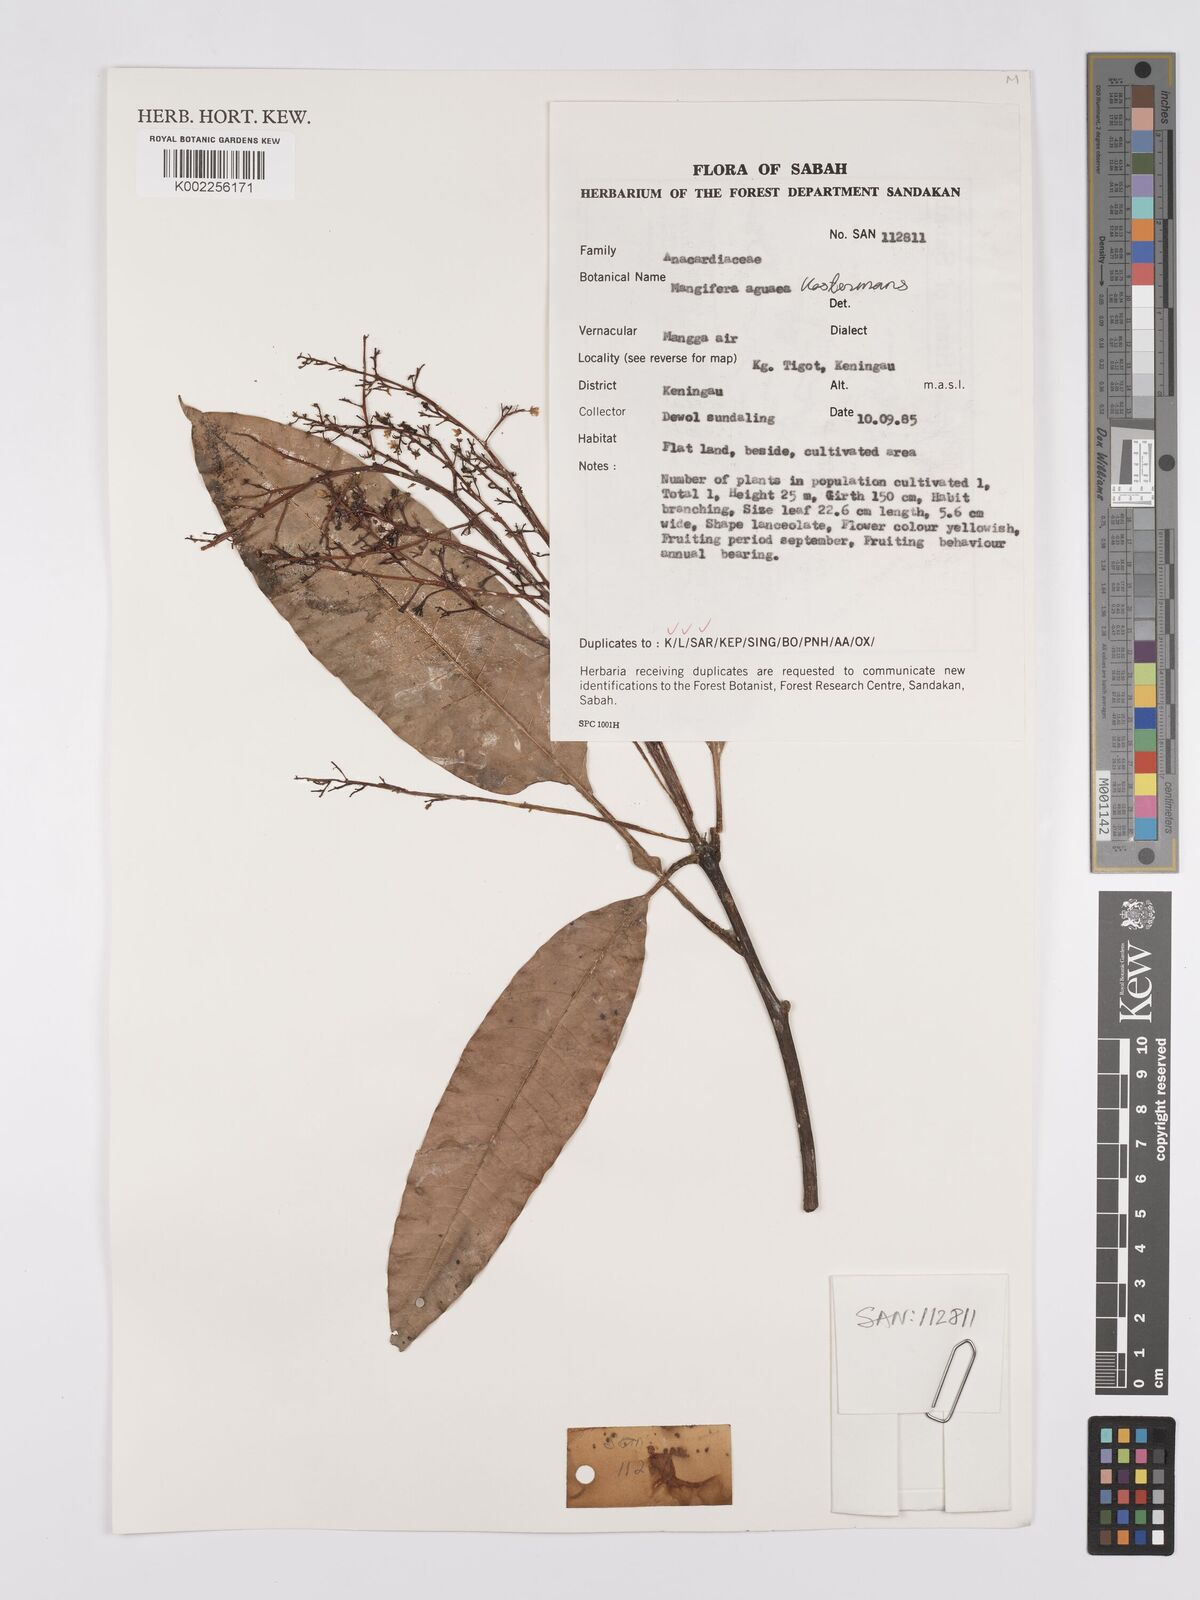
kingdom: Plantae
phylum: Tracheophyta
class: Magnoliopsida
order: Sapindales
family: Anacardiaceae
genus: Mangifera
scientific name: Mangifera laurina
